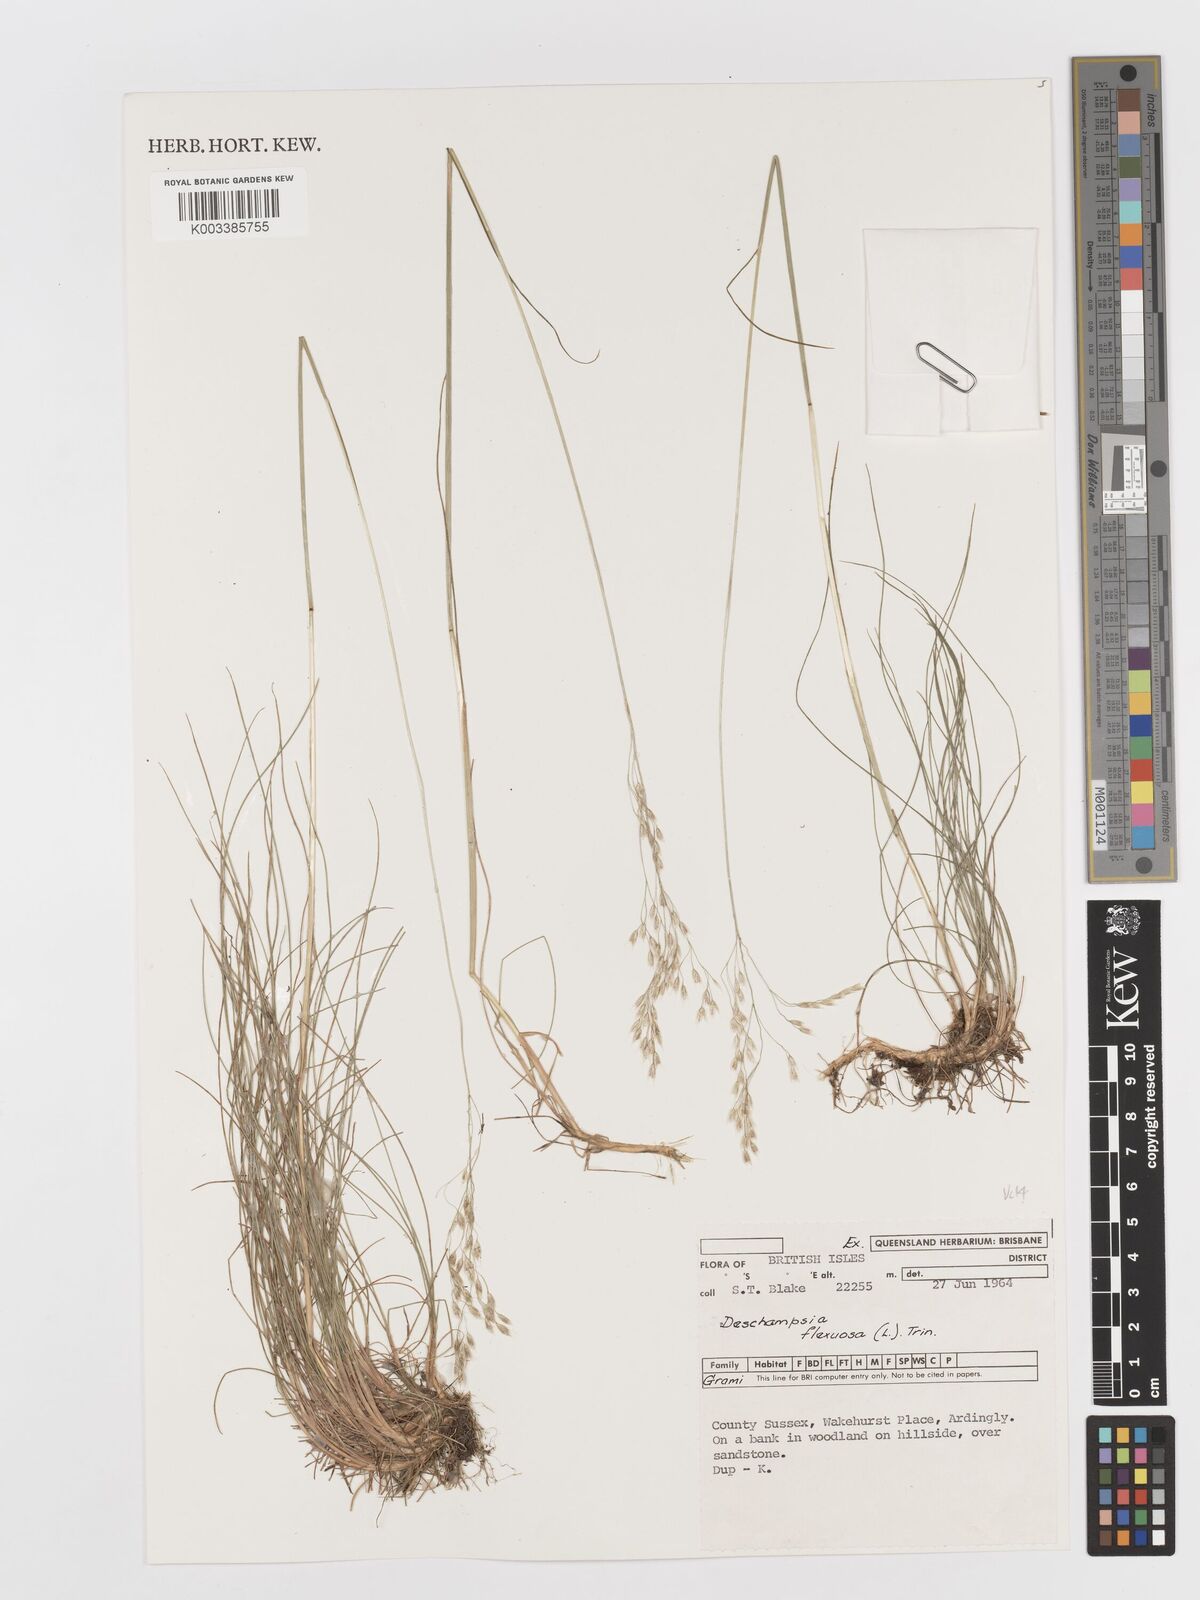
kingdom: Plantae
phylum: Tracheophyta
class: Liliopsida
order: Poales
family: Poaceae
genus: Avenella
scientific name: Avenella flexuosa
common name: Wavy hairgrass
